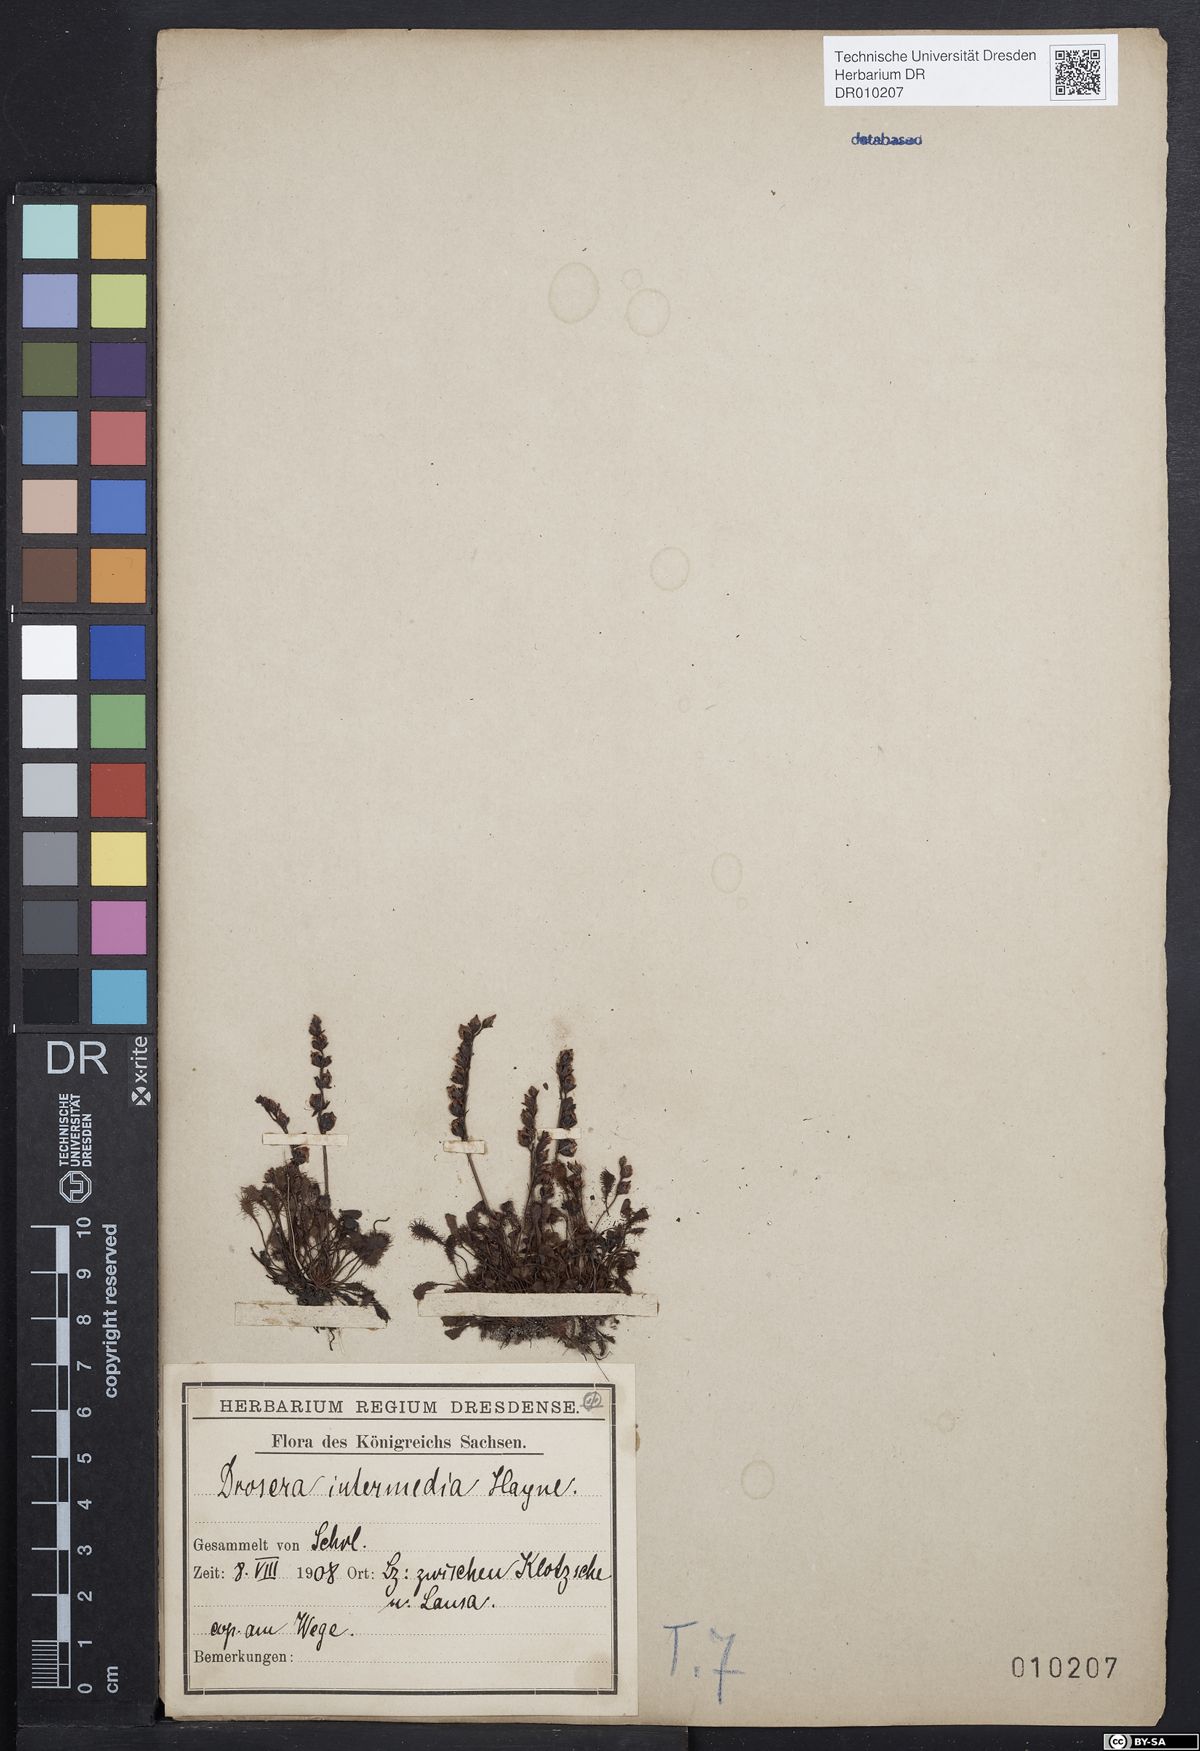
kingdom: Plantae
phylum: Tracheophyta
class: Magnoliopsida
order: Caryophyllales
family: Droseraceae
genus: Drosera
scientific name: Drosera intermedia
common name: Oblong-leaved sundew
